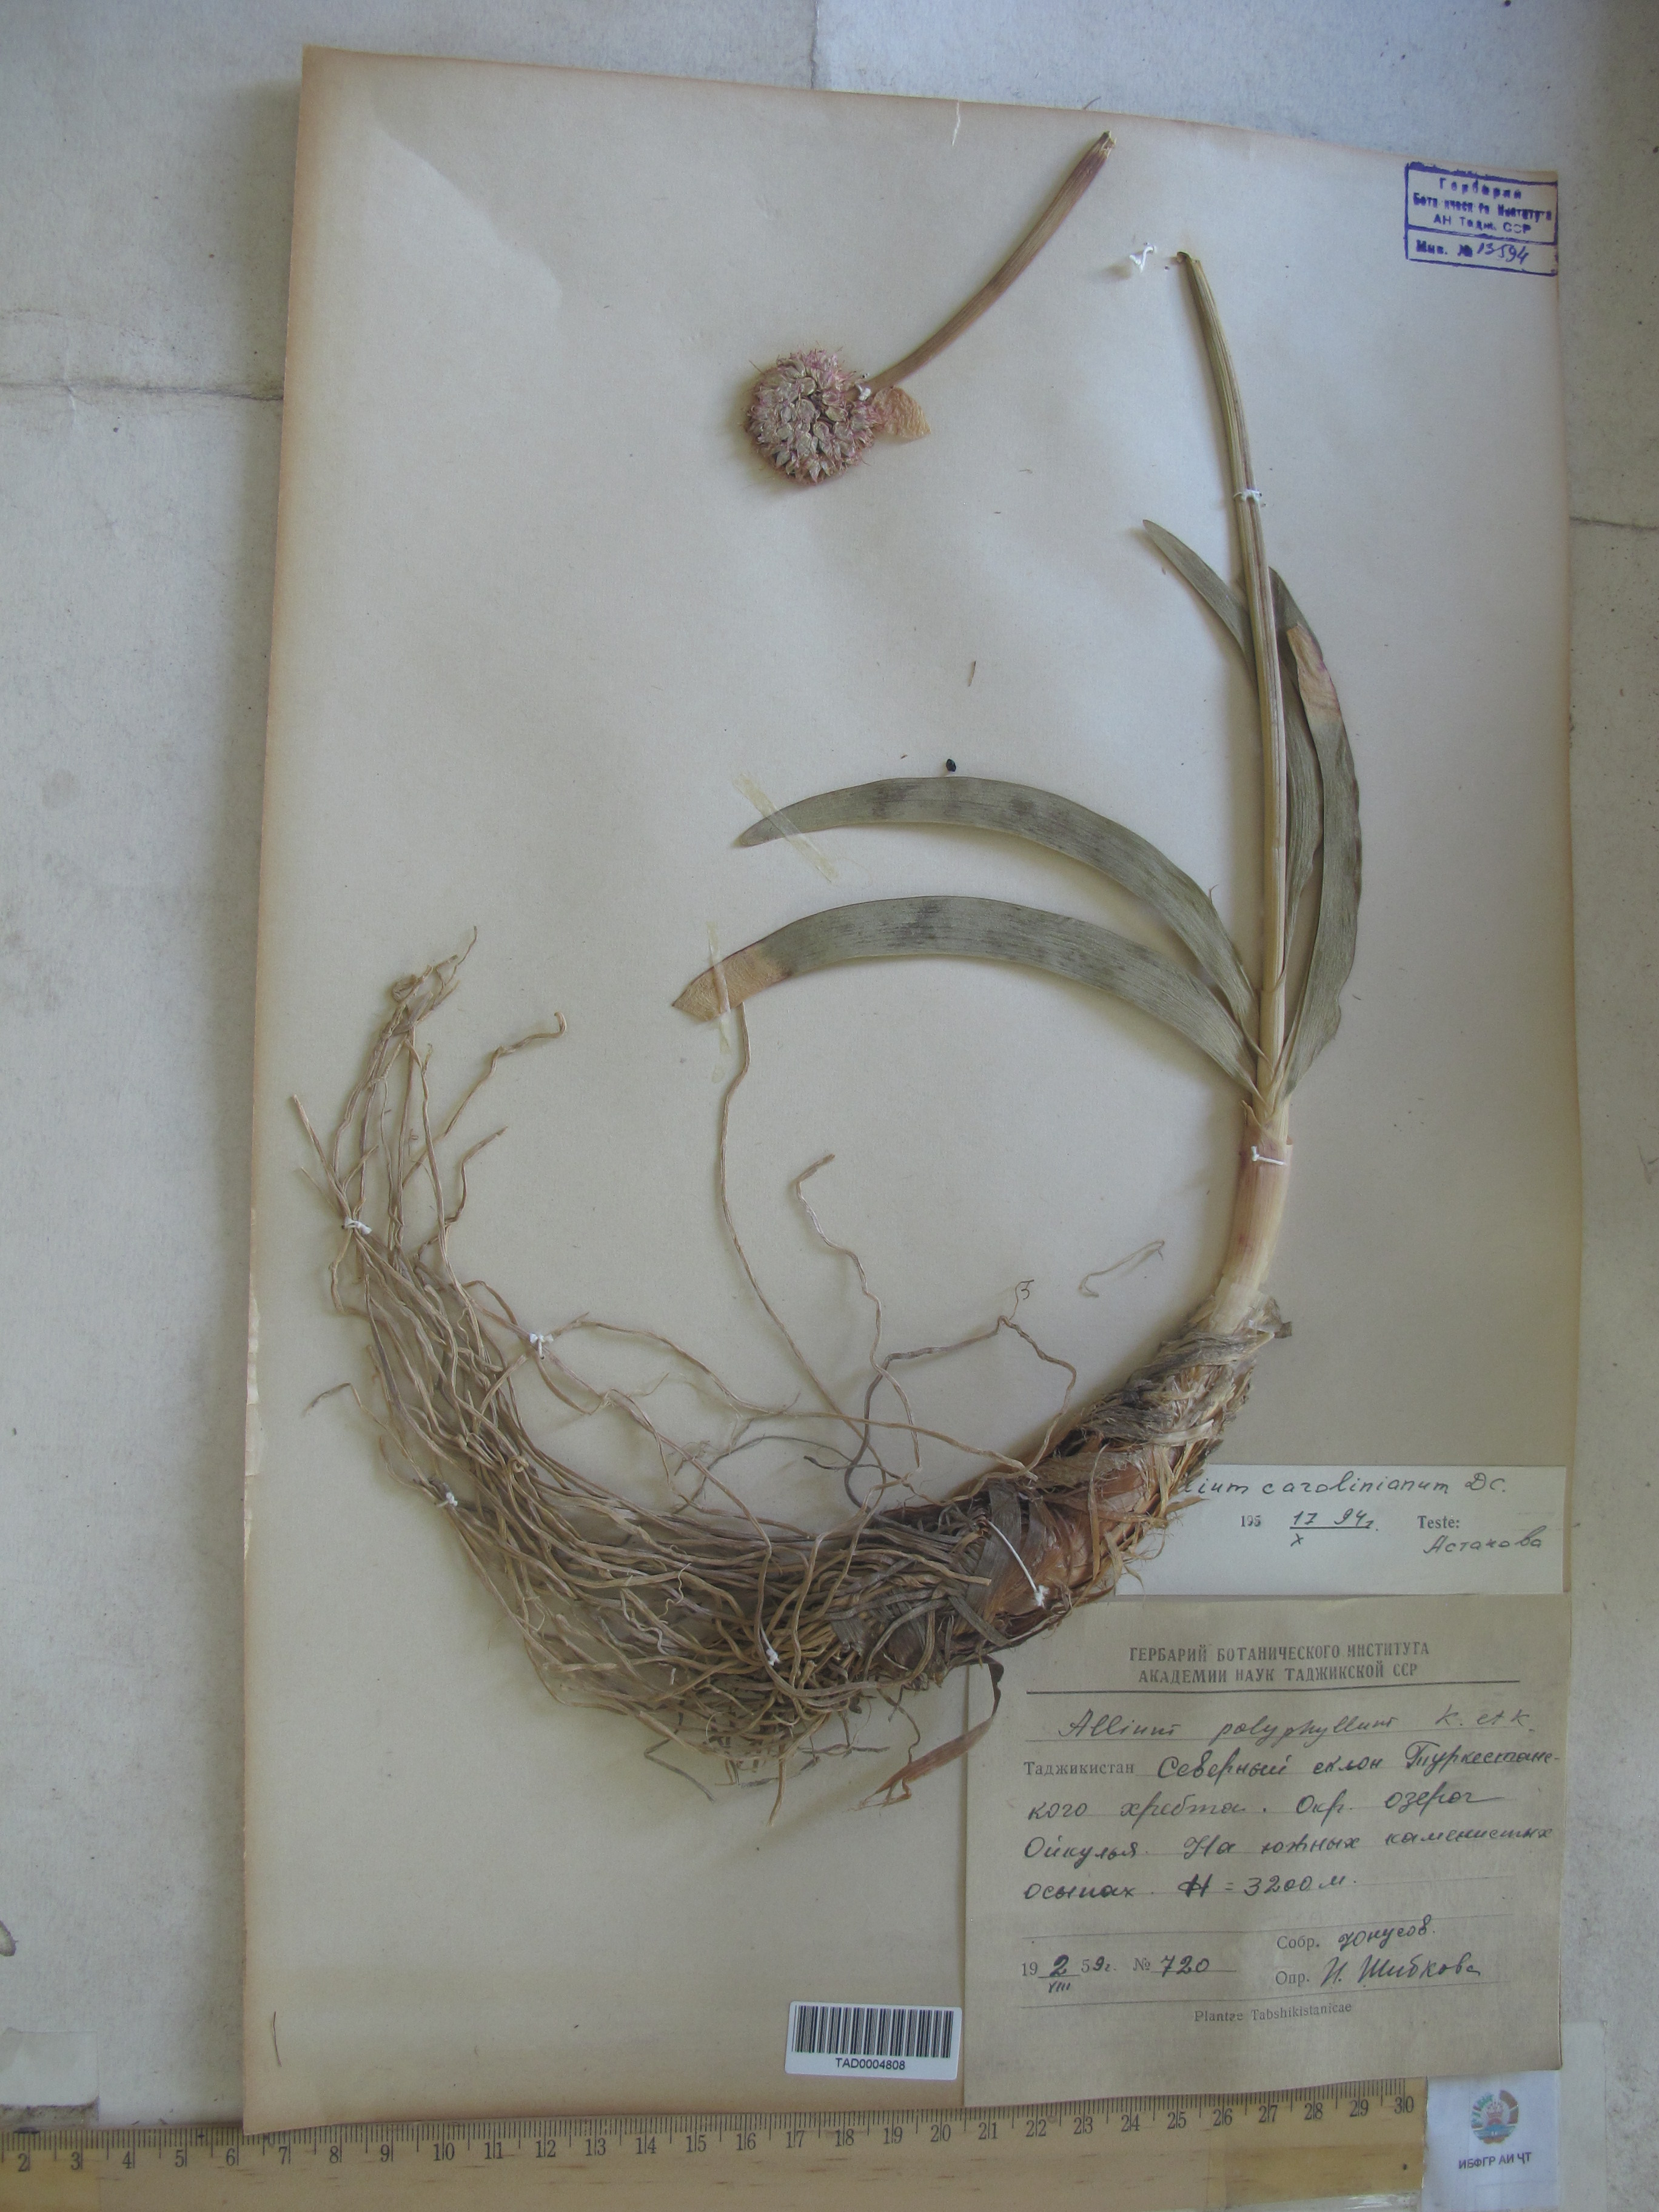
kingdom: Plantae
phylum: Tracheophyta
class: Liliopsida
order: Asparagales
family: Amaryllidaceae
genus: Allium
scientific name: Allium carolinianum
